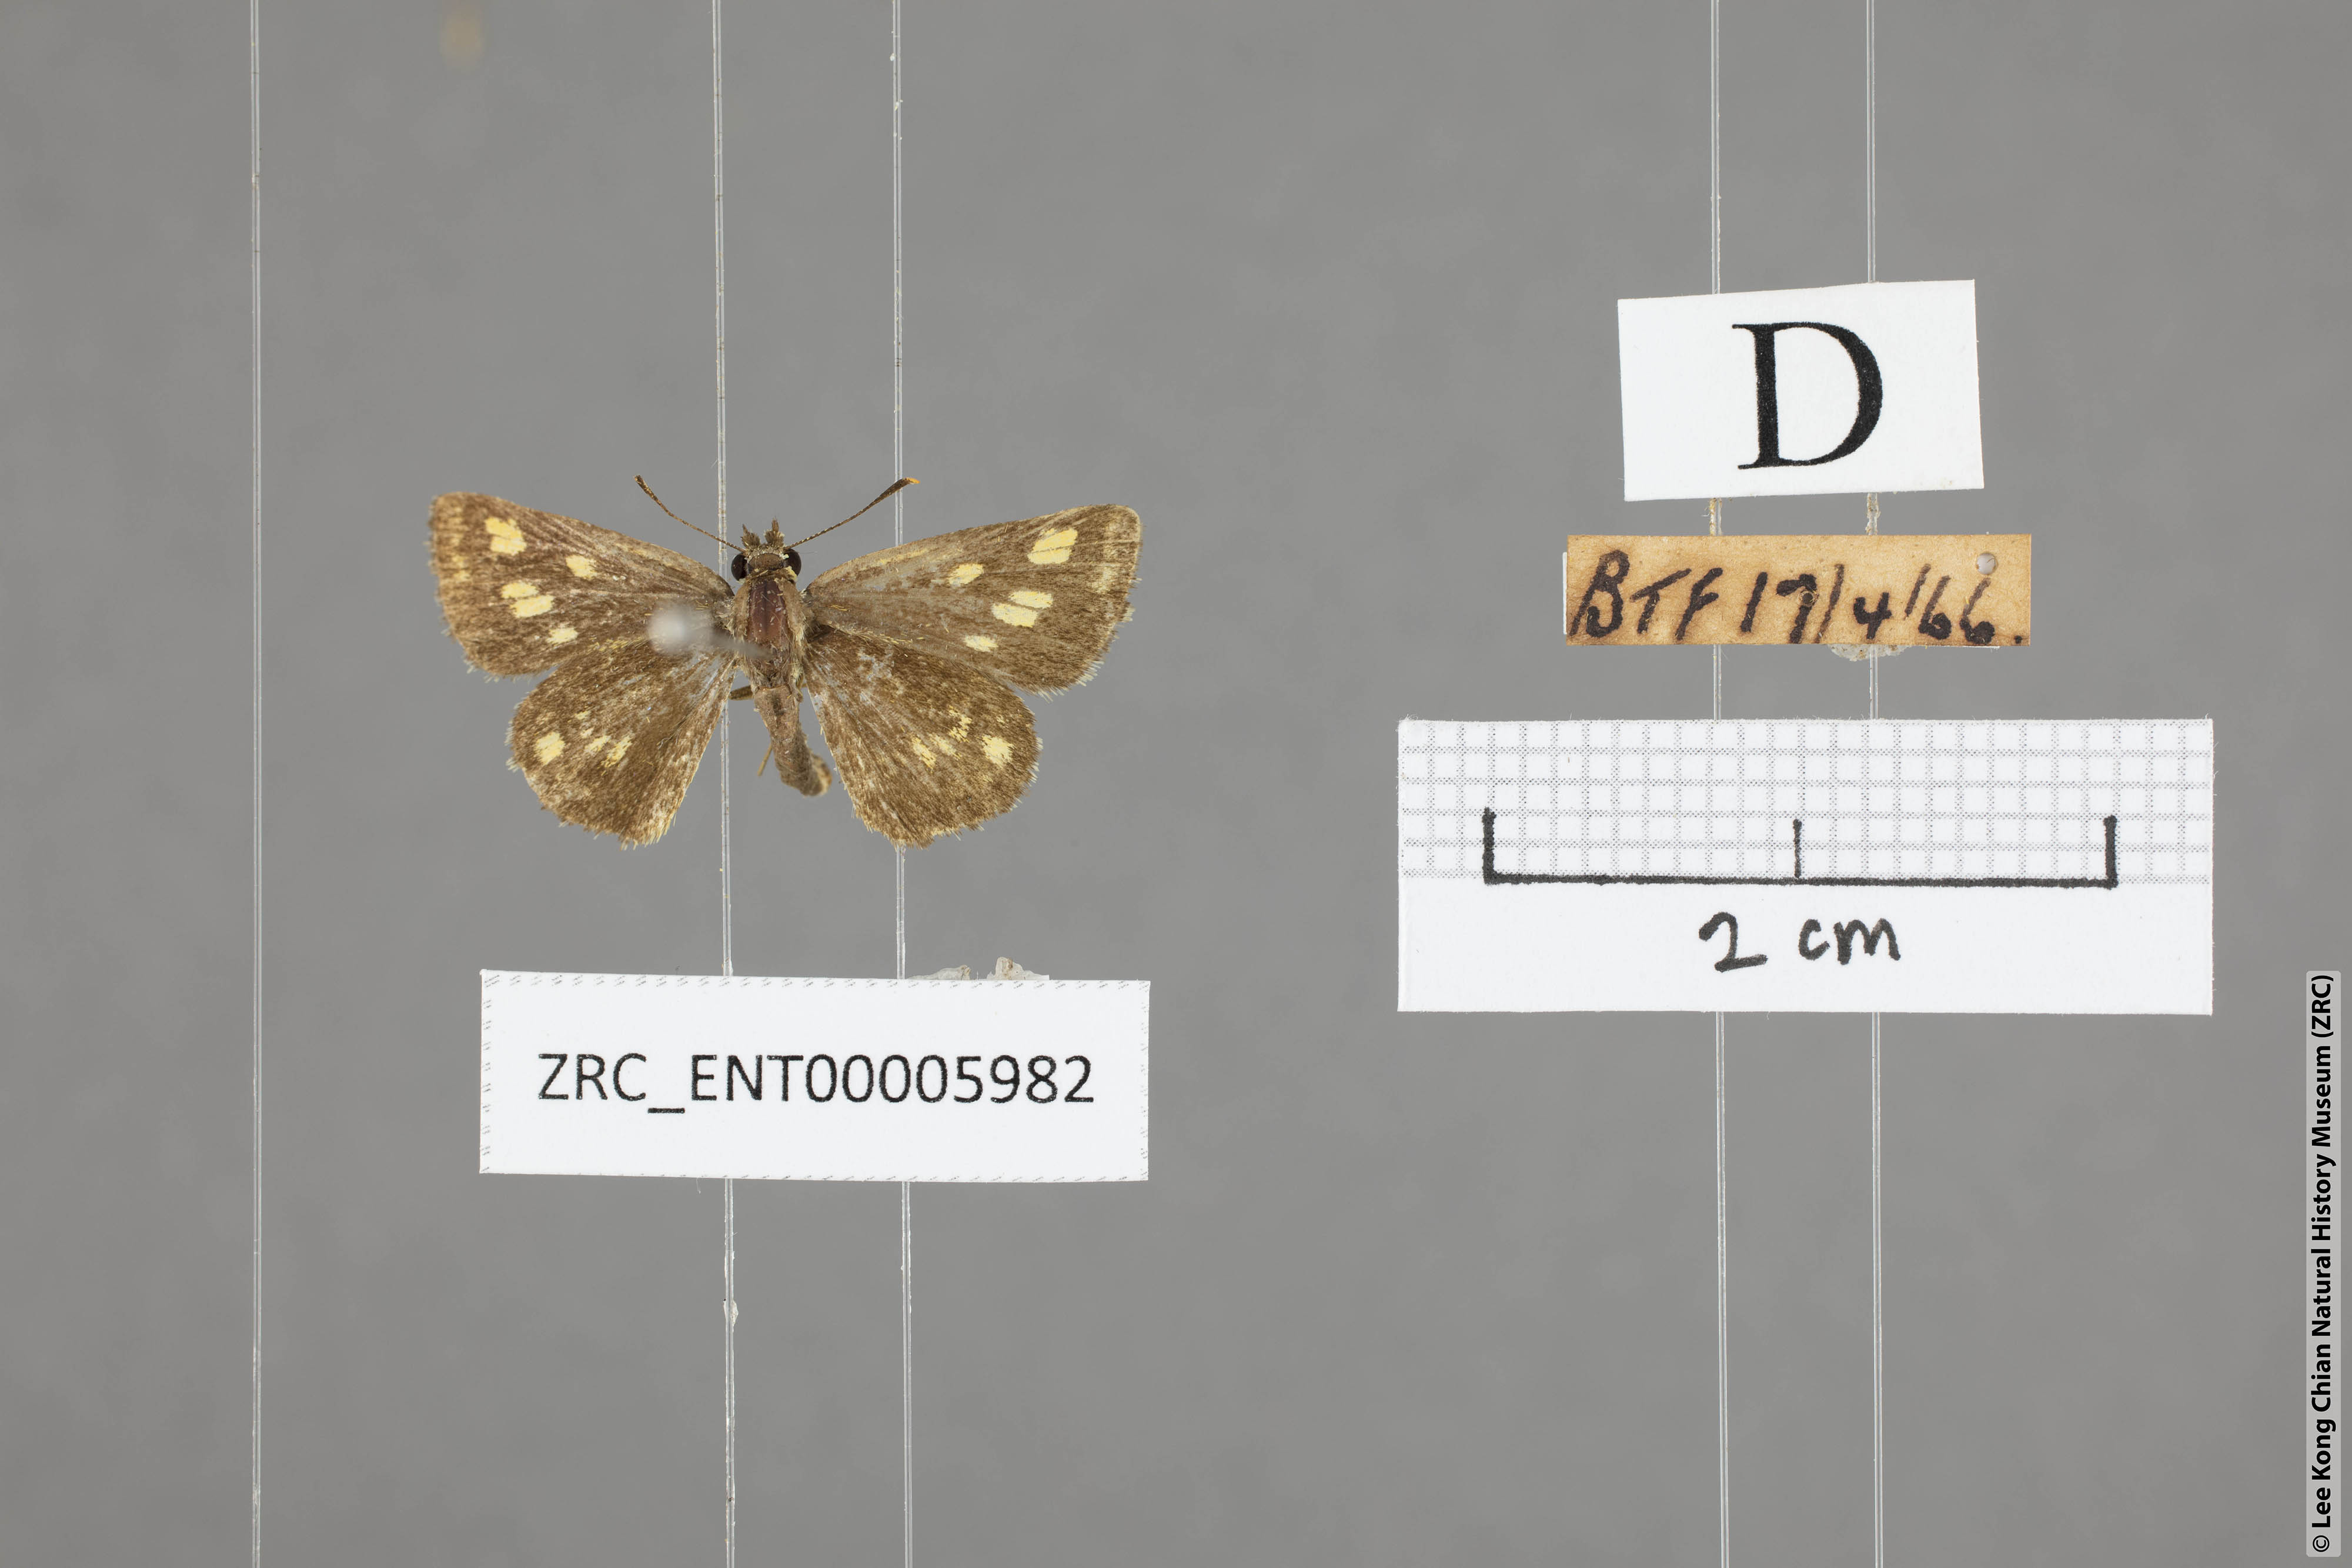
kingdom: Animalia
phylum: Arthropoda
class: Insecta
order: Lepidoptera
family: Hesperiidae
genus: Ampittia
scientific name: Ampittia dioscorides
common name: Common bush hopper
